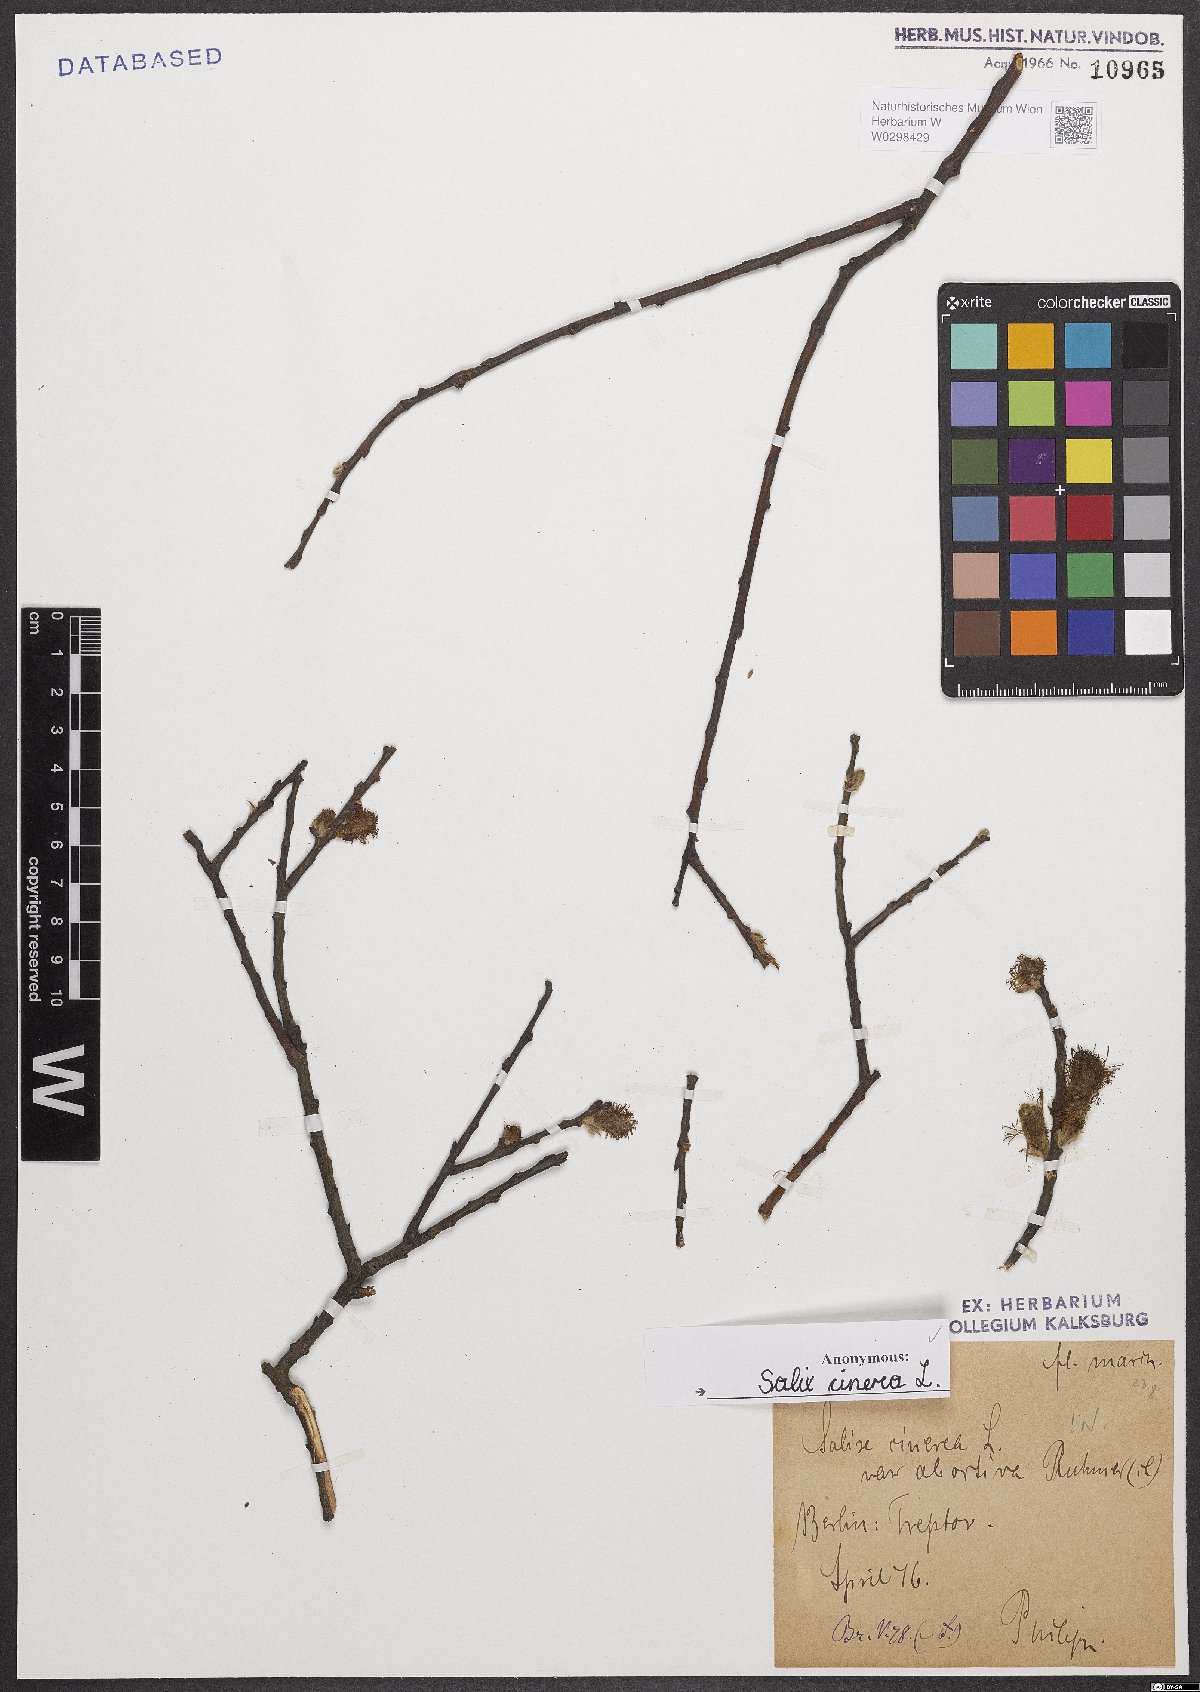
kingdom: Plantae
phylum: Tracheophyta
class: Magnoliopsida
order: Malpighiales
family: Salicaceae
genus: Salix
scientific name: Salix cinerea
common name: Common sallow
